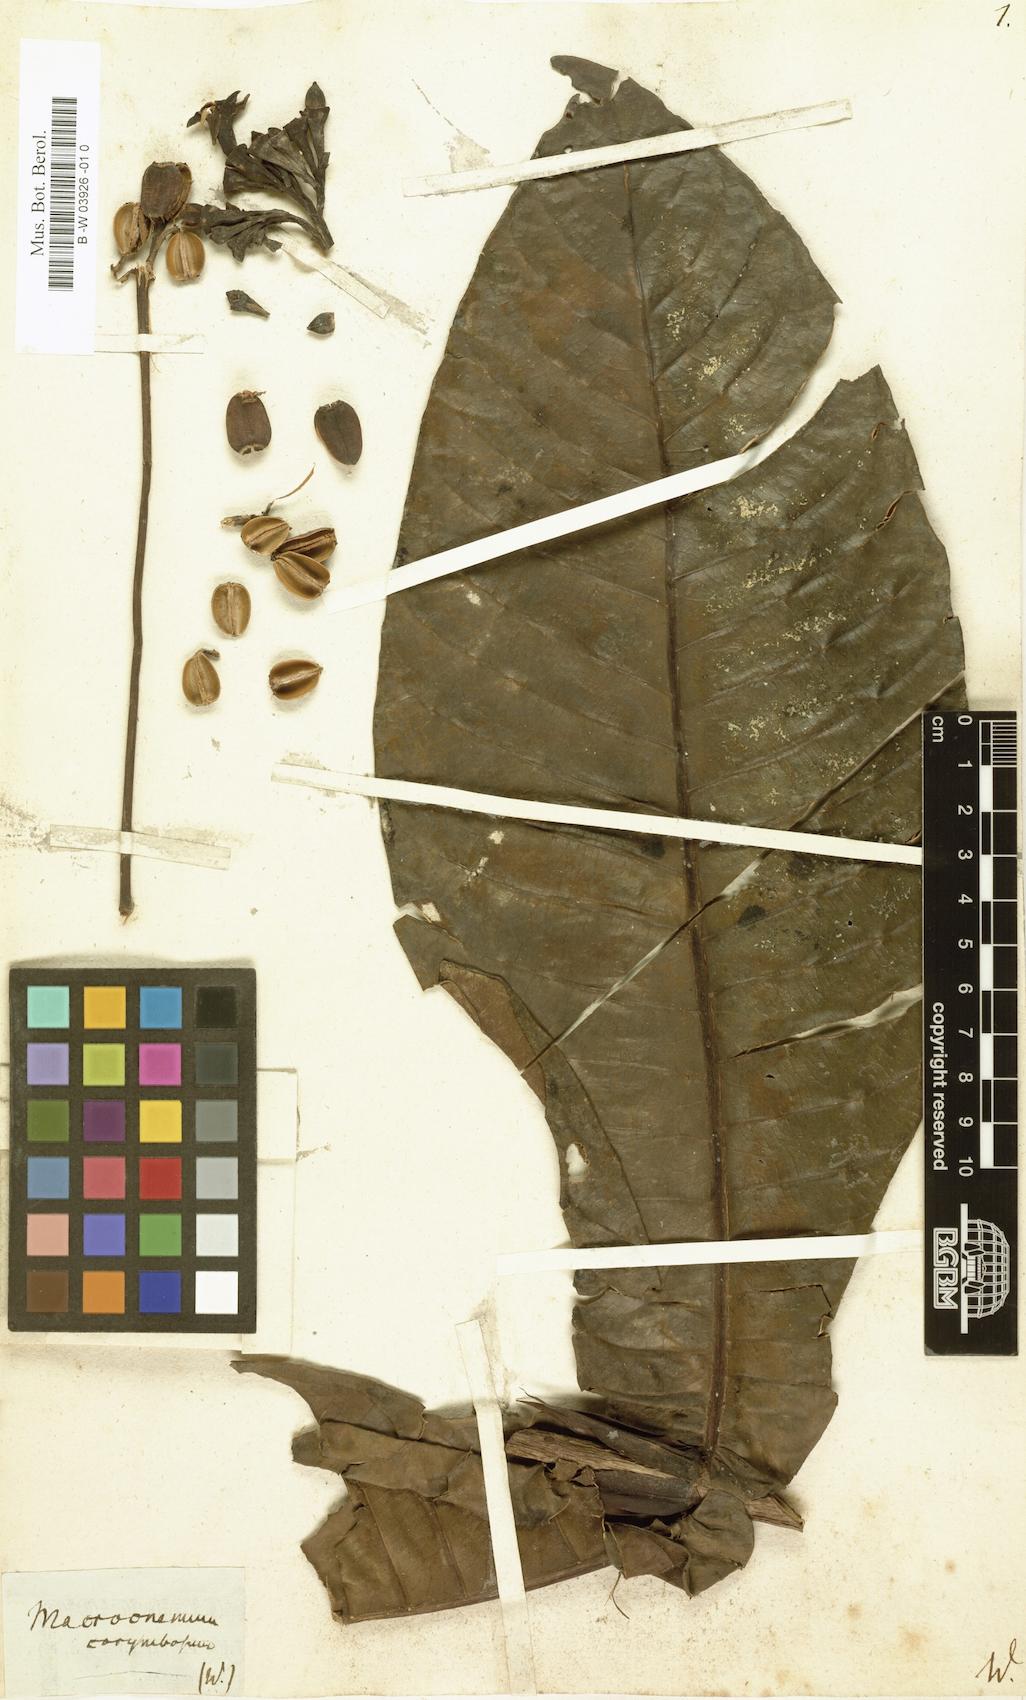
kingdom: Plantae
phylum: Tracheophyta
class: Magnoliopsida
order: Gentianales
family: Rubiaceae
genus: Condaminea
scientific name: Condaminea corymbosa
